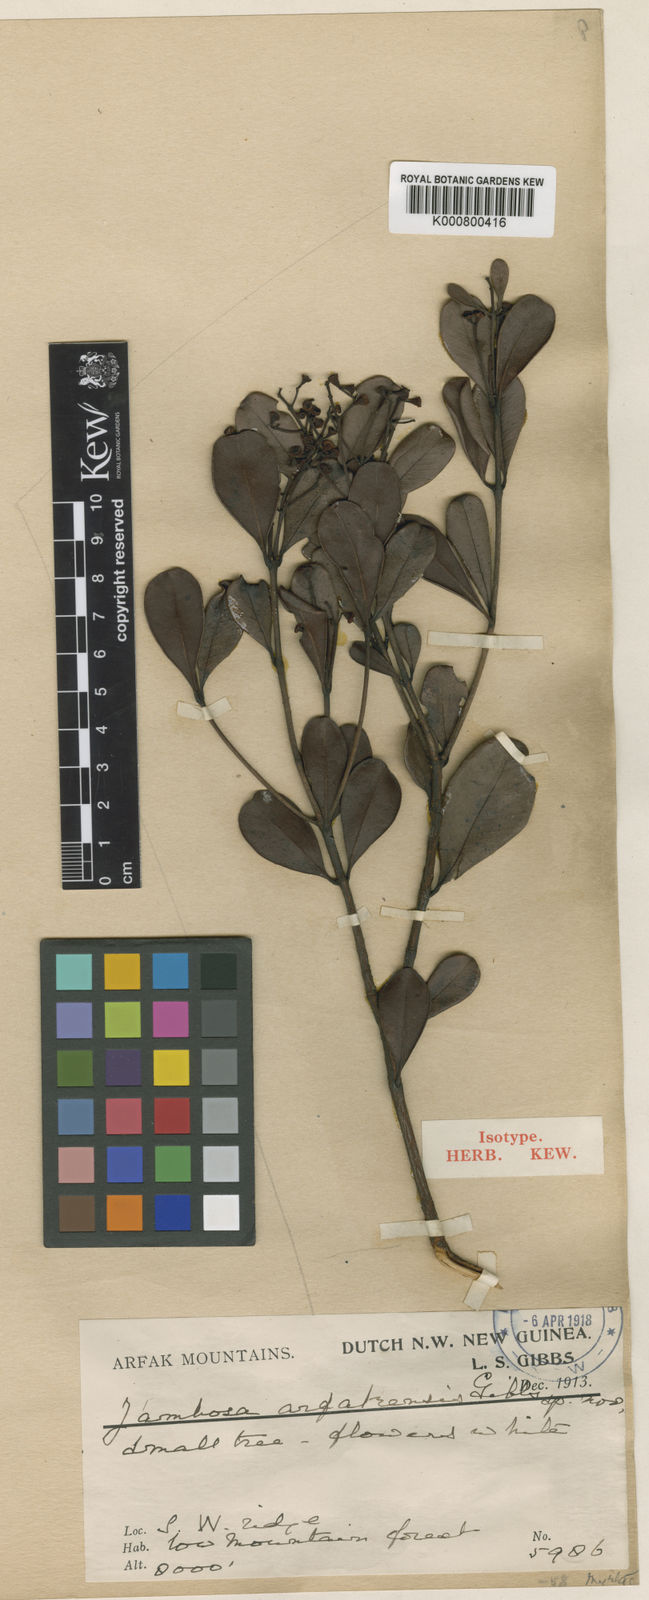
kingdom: Plantae
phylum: Tracheophyta
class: Magnoliopsida
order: Myrtales
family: Myrtaceae
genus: Syzygium
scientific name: Syzygium
